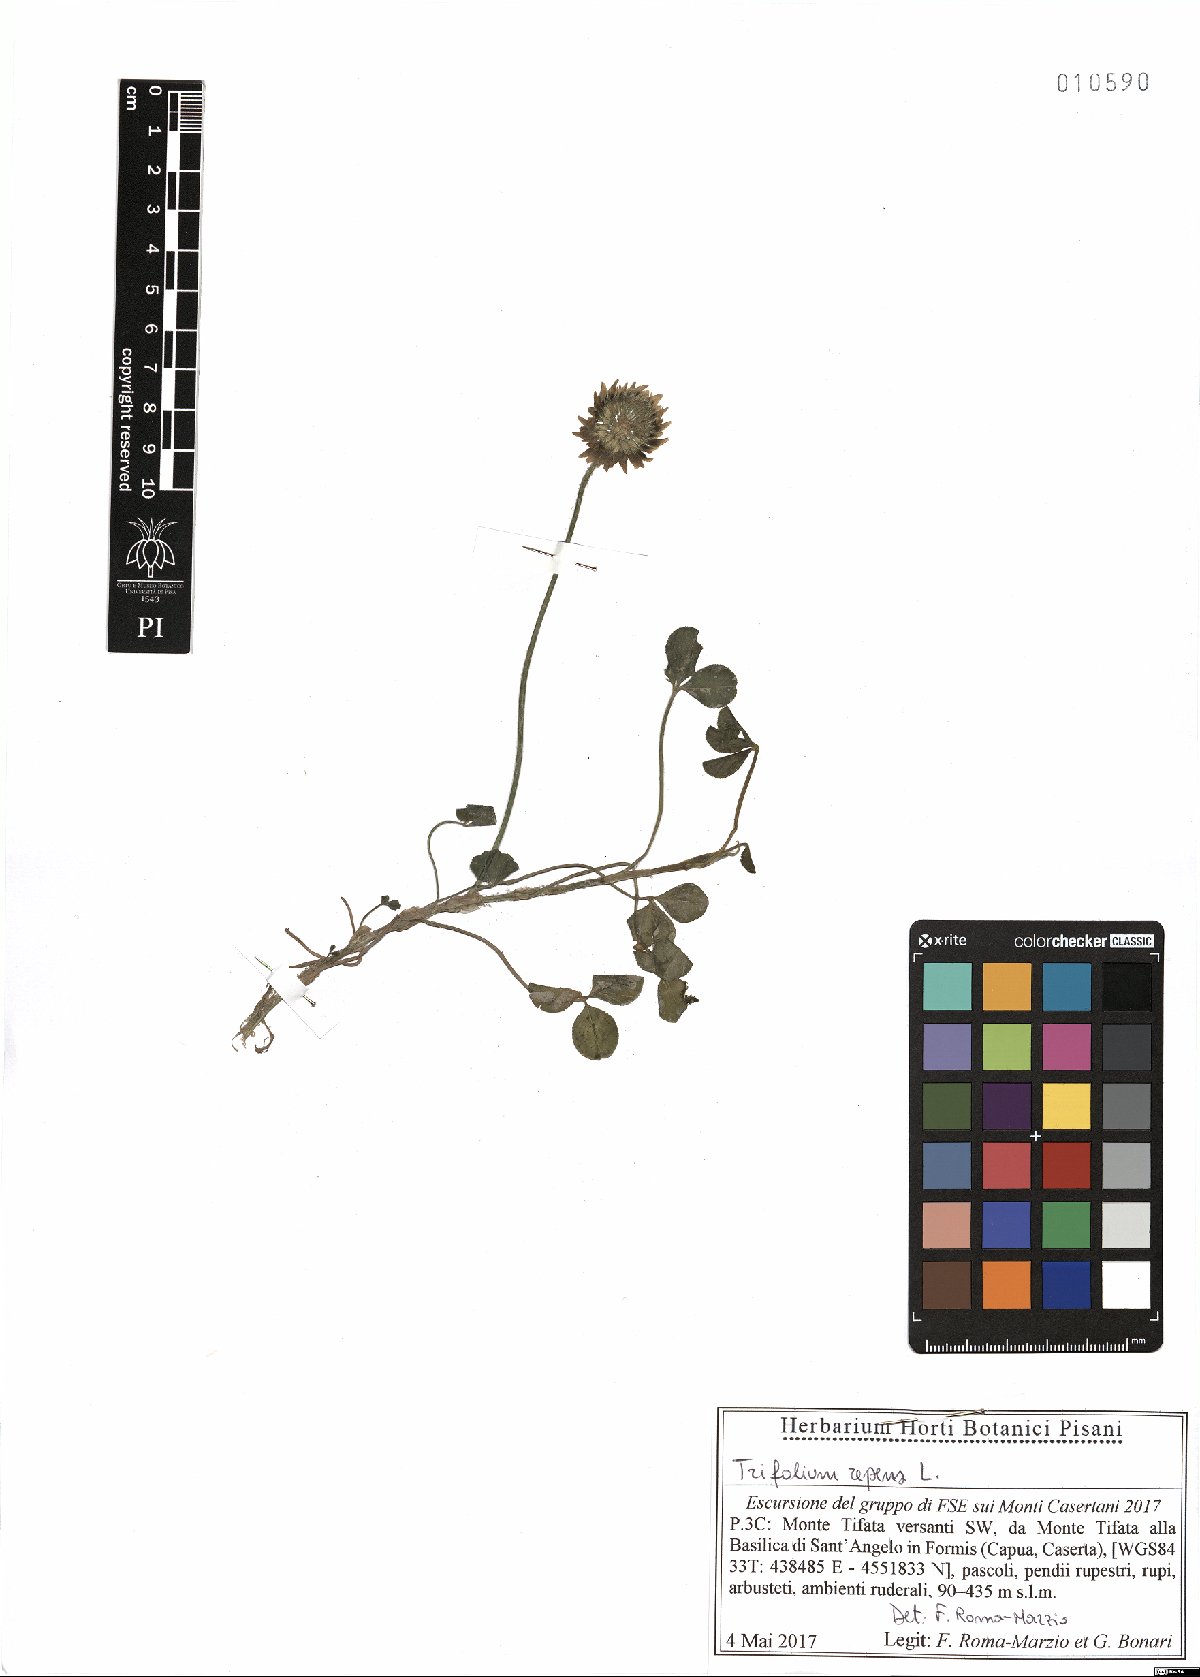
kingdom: Plantae
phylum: Tracheophyta
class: Magnoliopsida
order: Fabales
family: Fabaceae
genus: Trifolium
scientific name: Trifolium repens
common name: White clover
